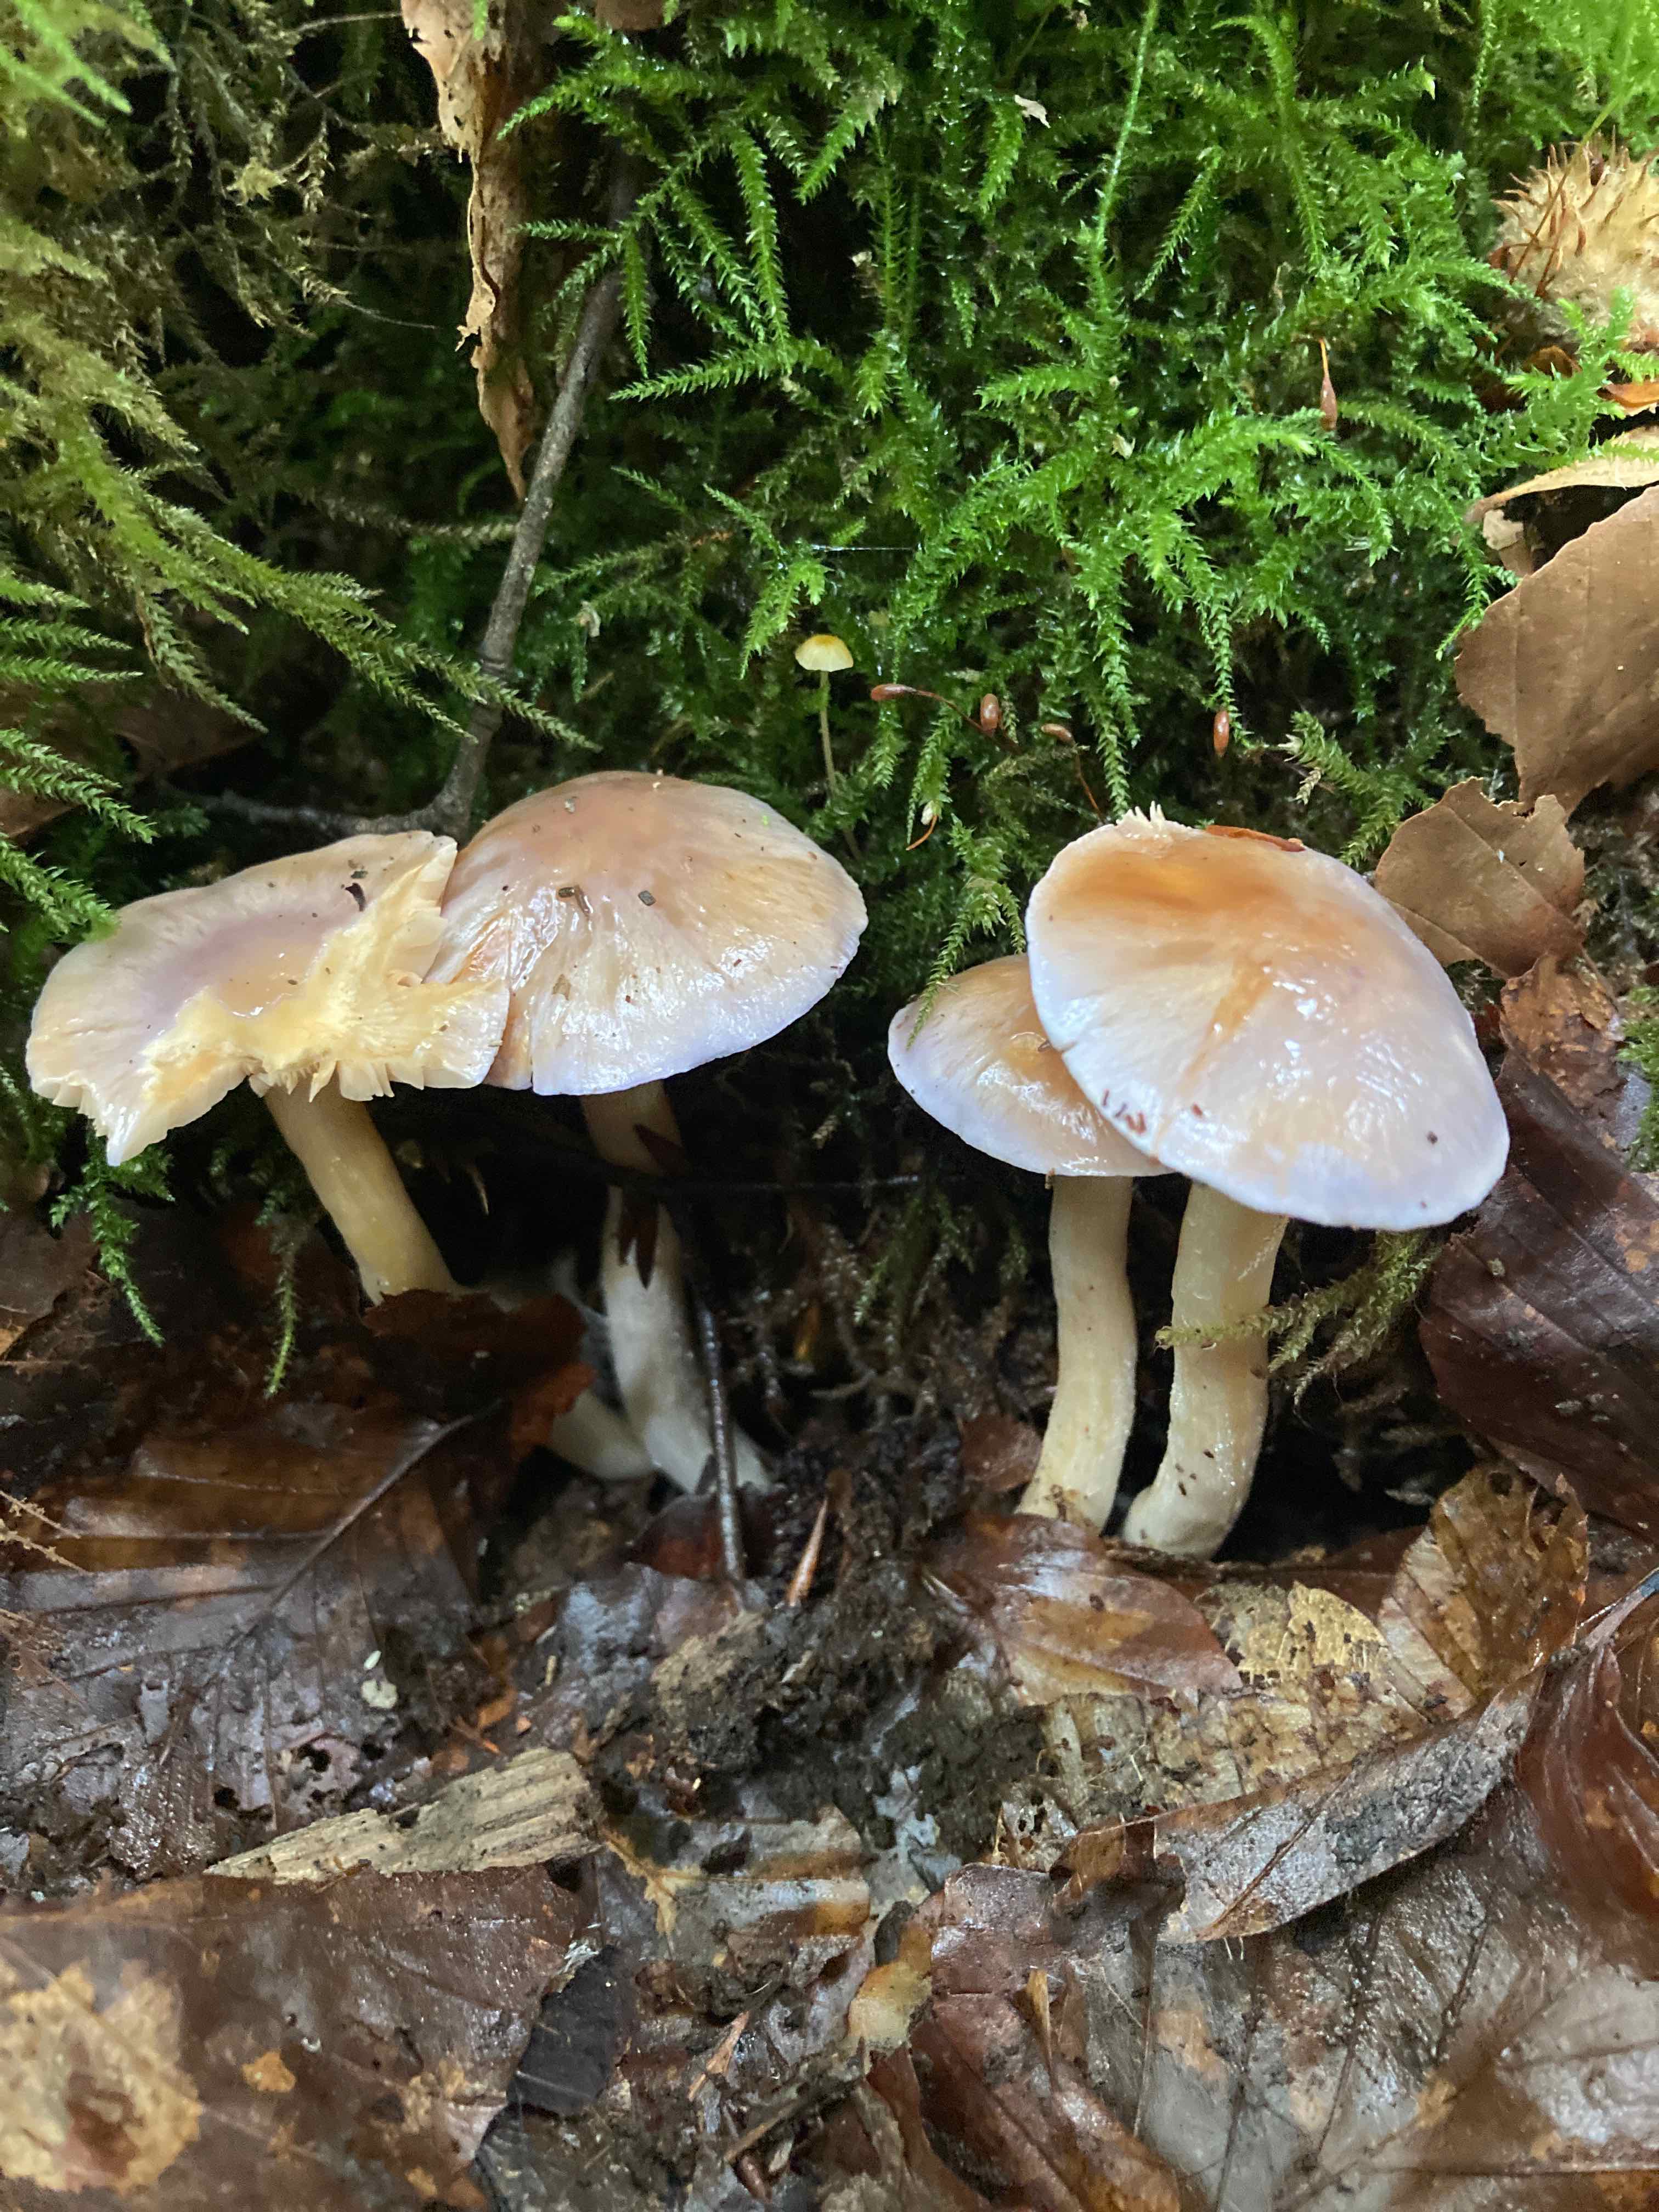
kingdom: Fungi
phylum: Basidiomycota
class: Agaricomycetes
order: Agaricales
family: Cortinariaceae
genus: Thaxterogaster
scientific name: Thaxterogaster croceocoeruleus
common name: blågullig slørhat
